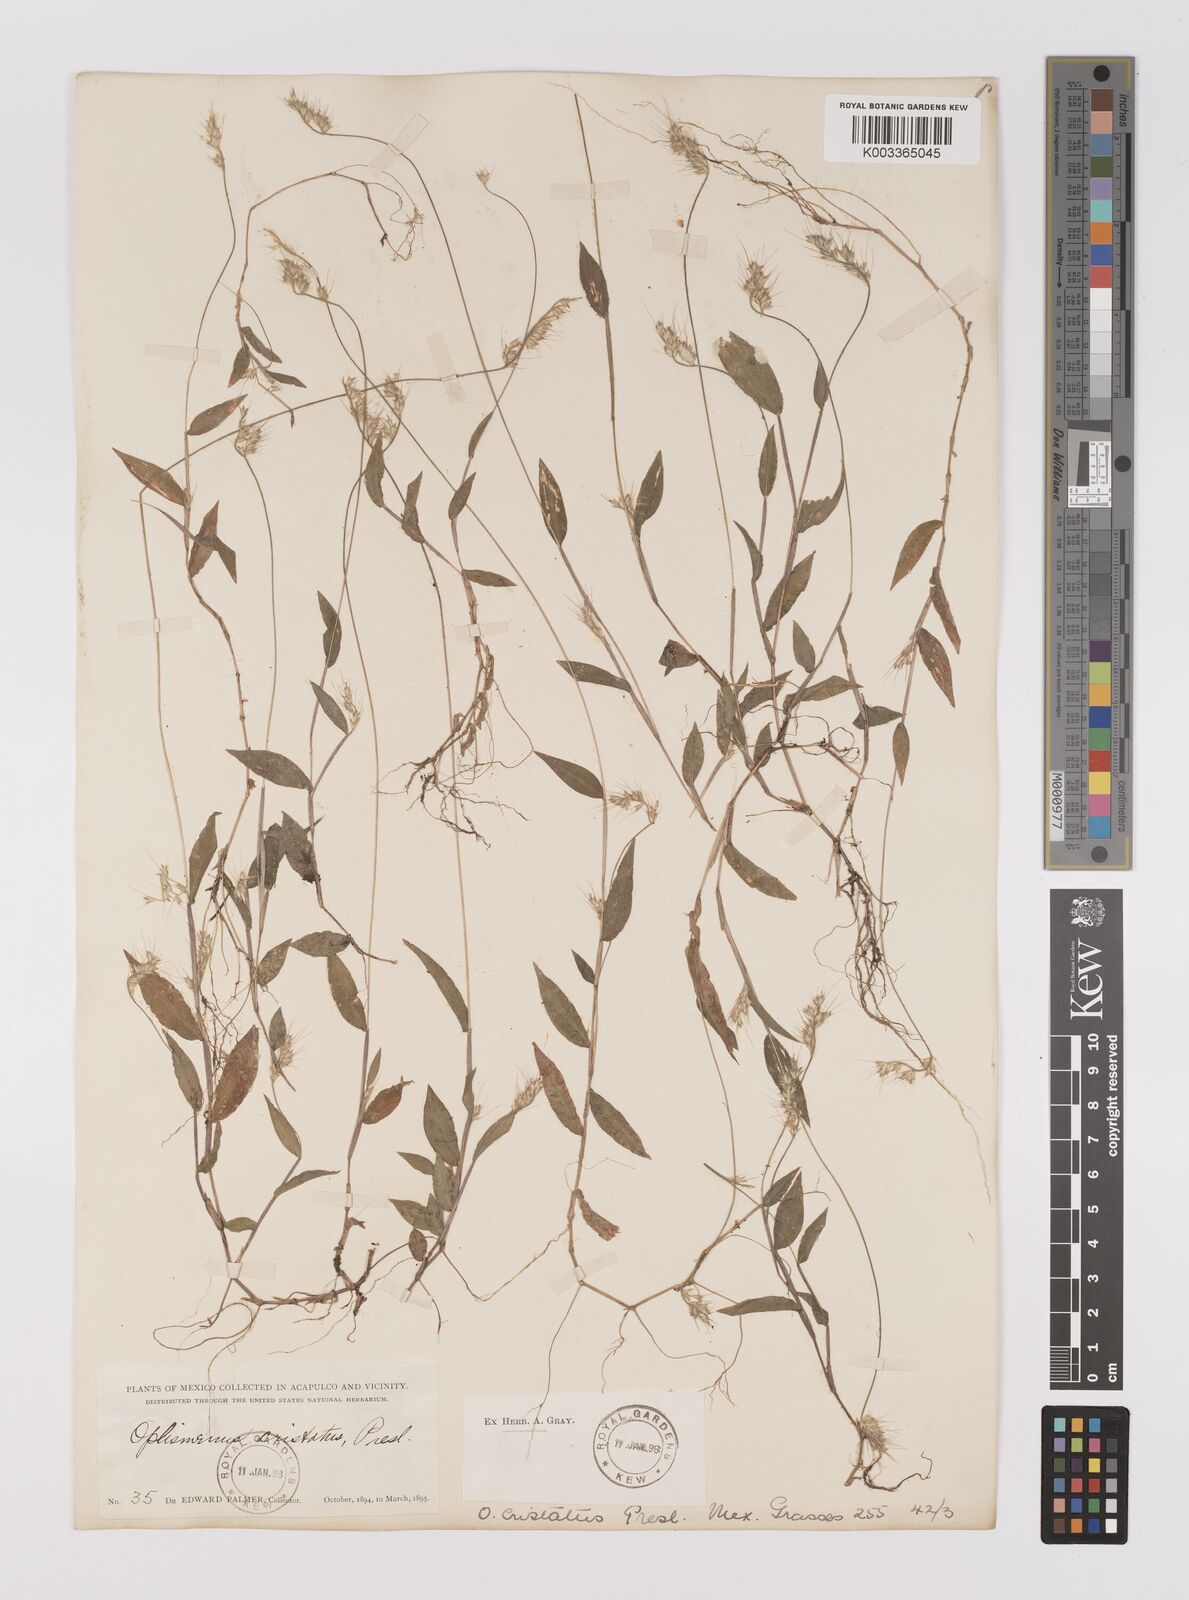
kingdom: Plantae
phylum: Tracheophyta
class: Liliopsida
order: Poales
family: Poaceae
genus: Oplismenus
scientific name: Oplismenus burmanni
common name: Burmann's basketgrass
